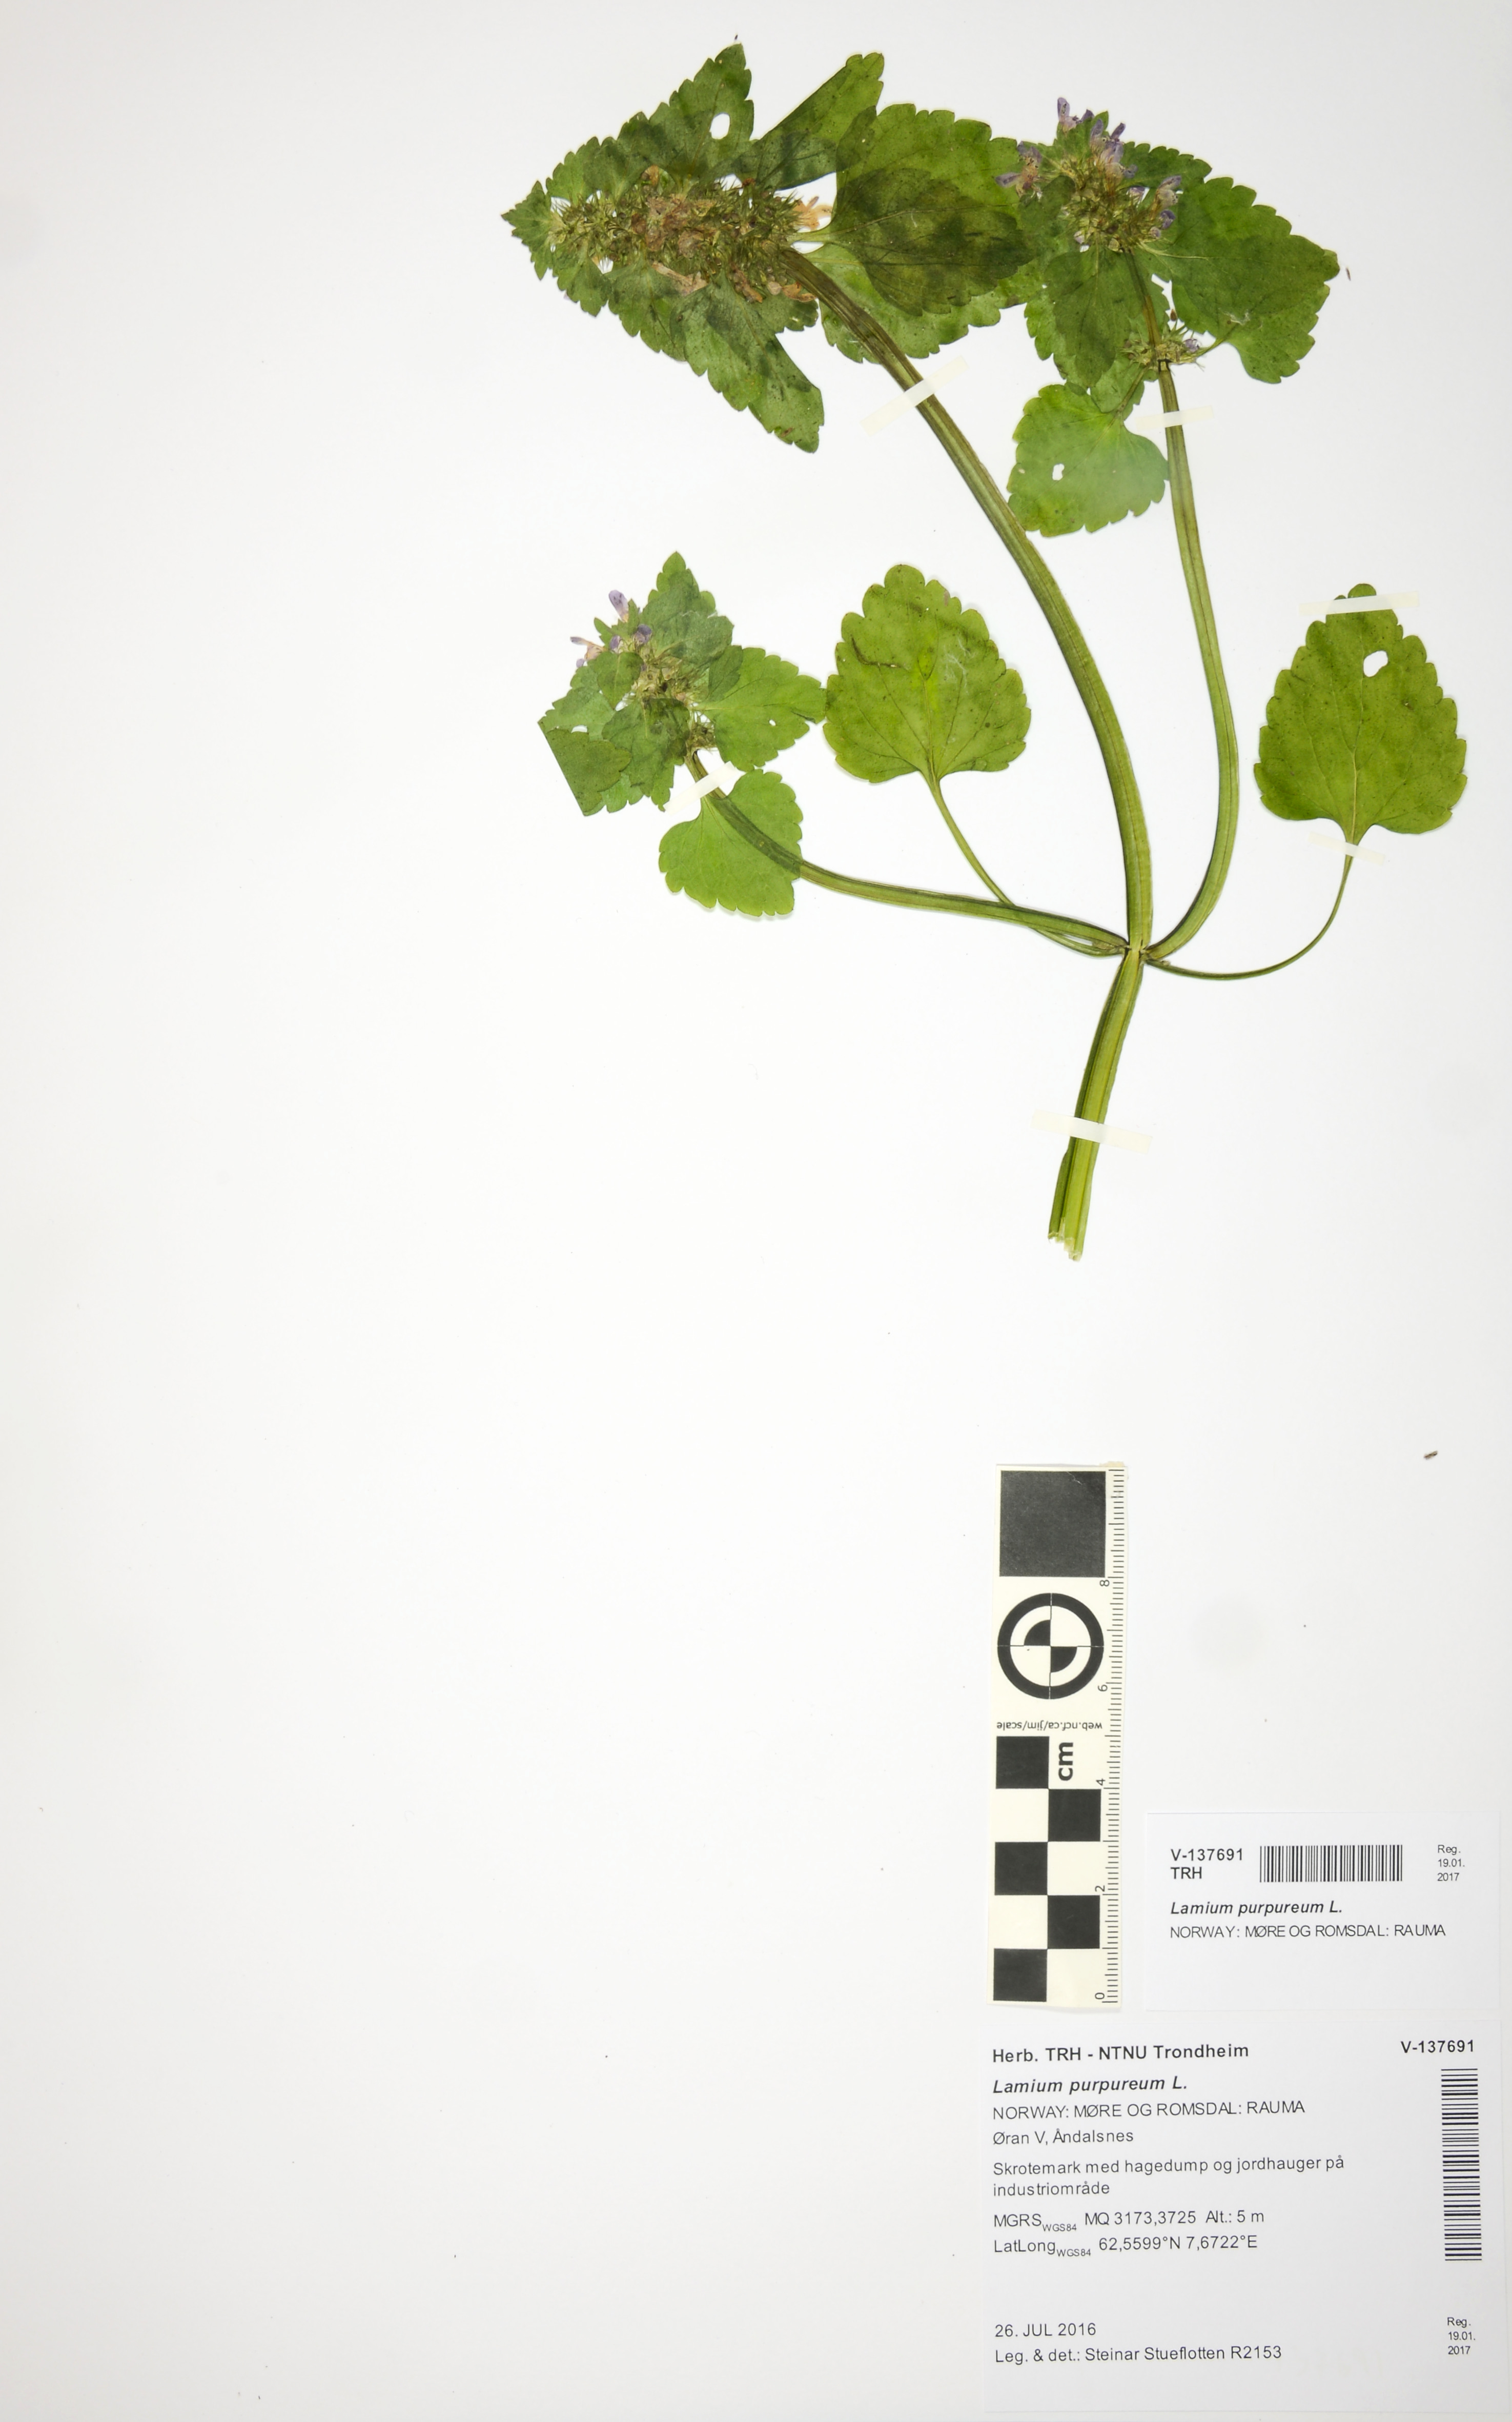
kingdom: Plantae
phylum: Tracheophyta
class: Magnoliopsida
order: Lamiales
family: Lamiaceae
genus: Lamium
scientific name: Lamium purpureum
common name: Red dead-nettle
